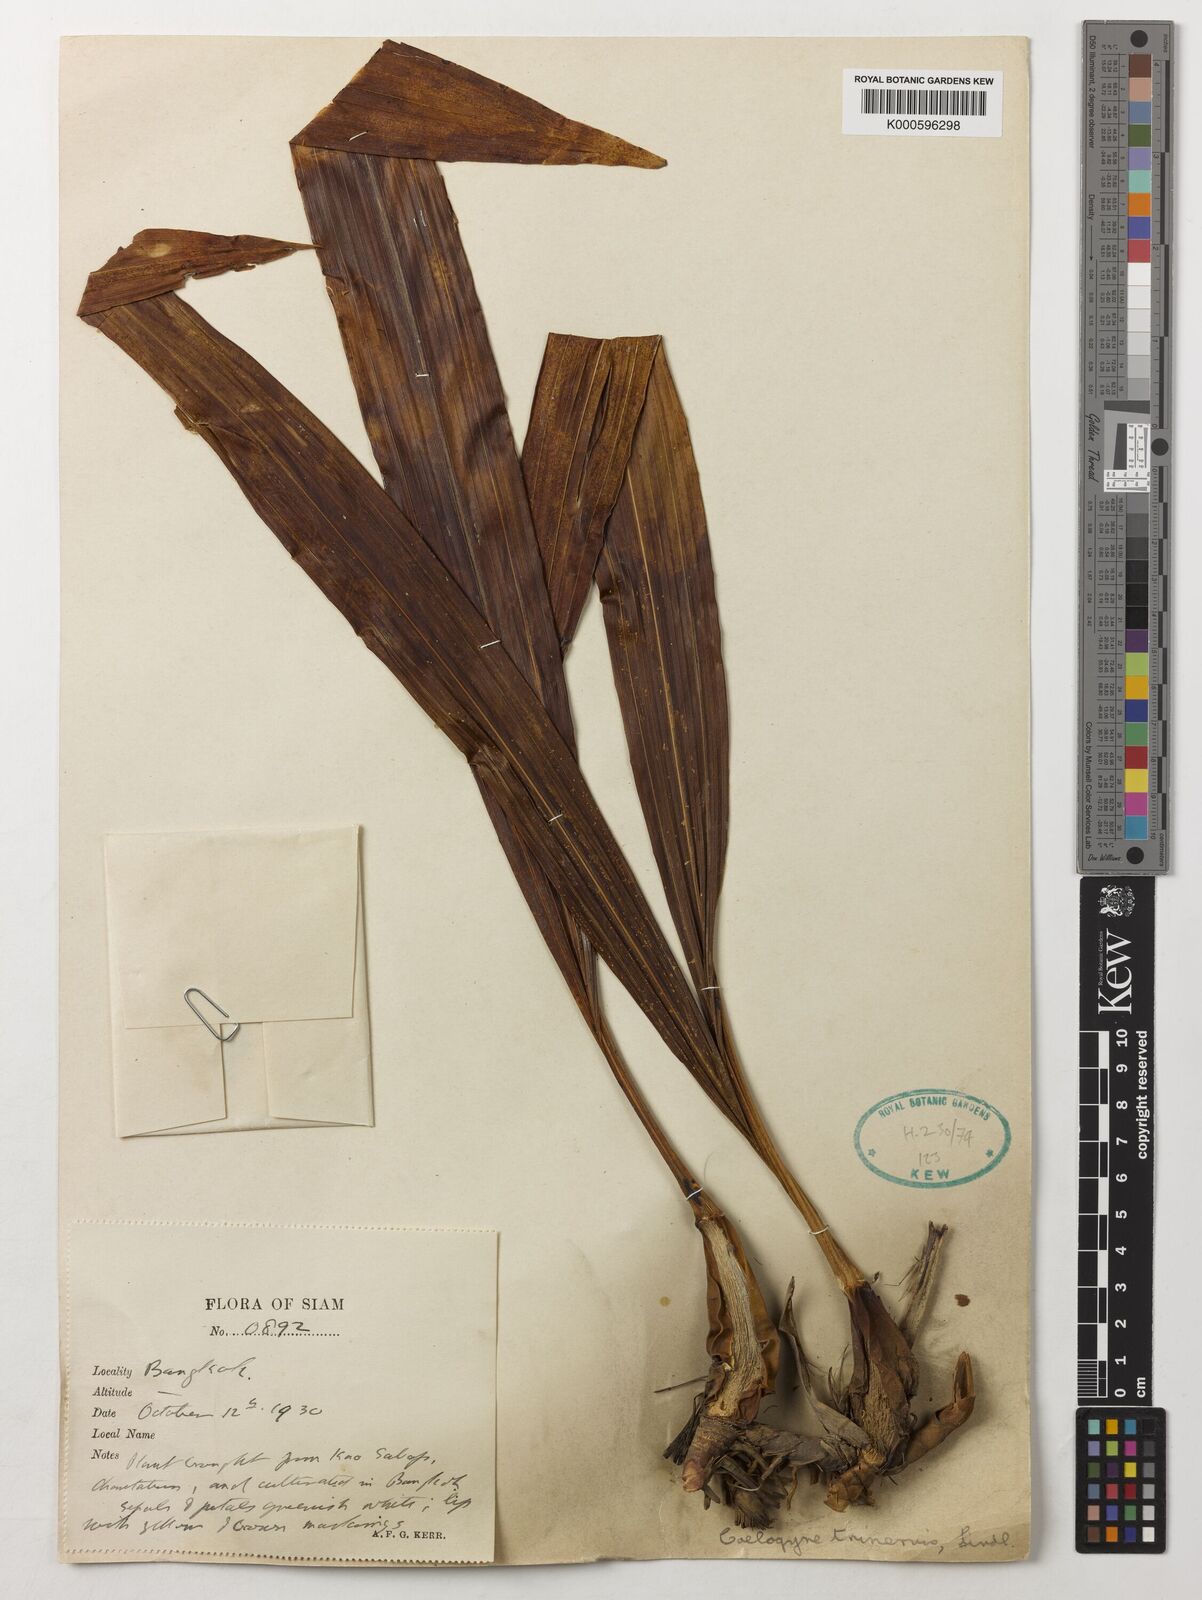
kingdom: Plantae
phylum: Tracheophyta
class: Liliopsida
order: Asparagales
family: Orchidaceae
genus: Coelogyne
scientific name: Coelogyne trinervis
